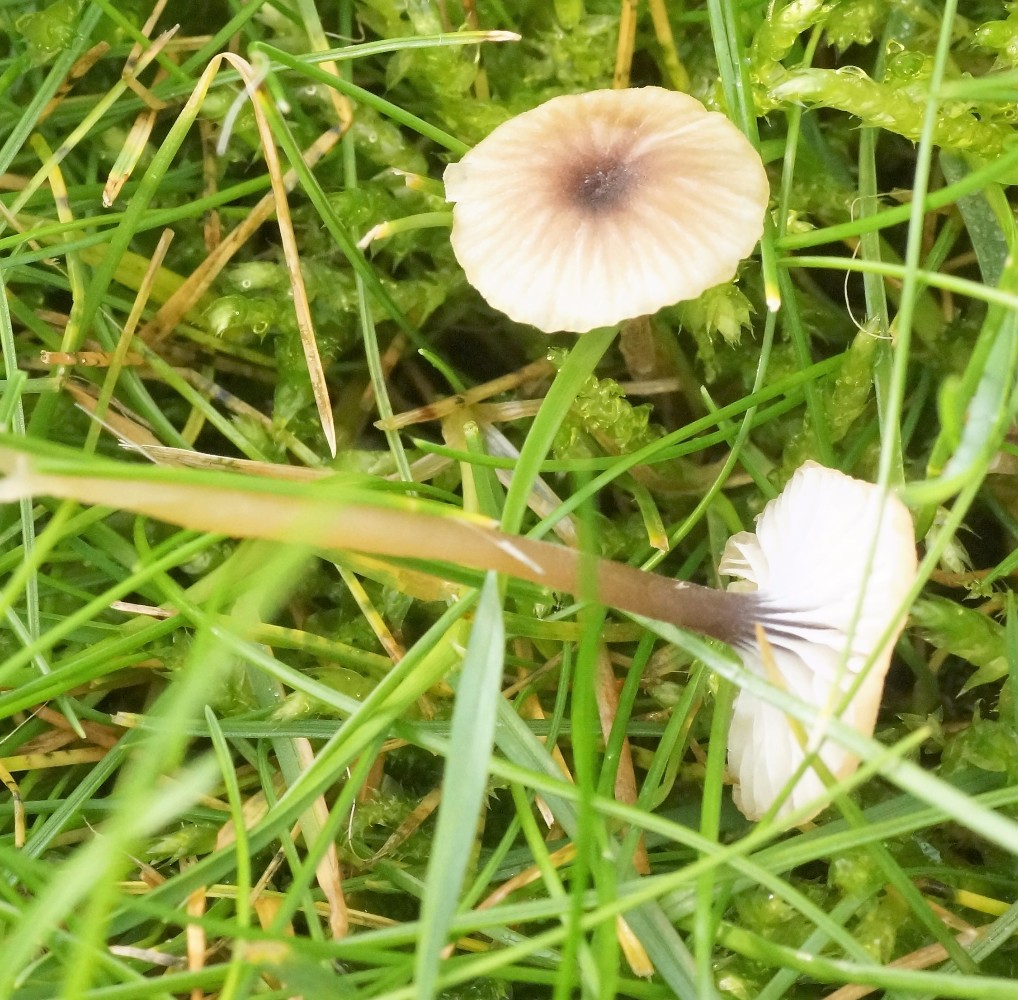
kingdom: Fungi
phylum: Basidiomycota
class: Agaricomycetes
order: Hymenochaetales
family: Rickenellaceae
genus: Rickenella
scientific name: Rickenella swartzii
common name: finstokket mosnavlehat
